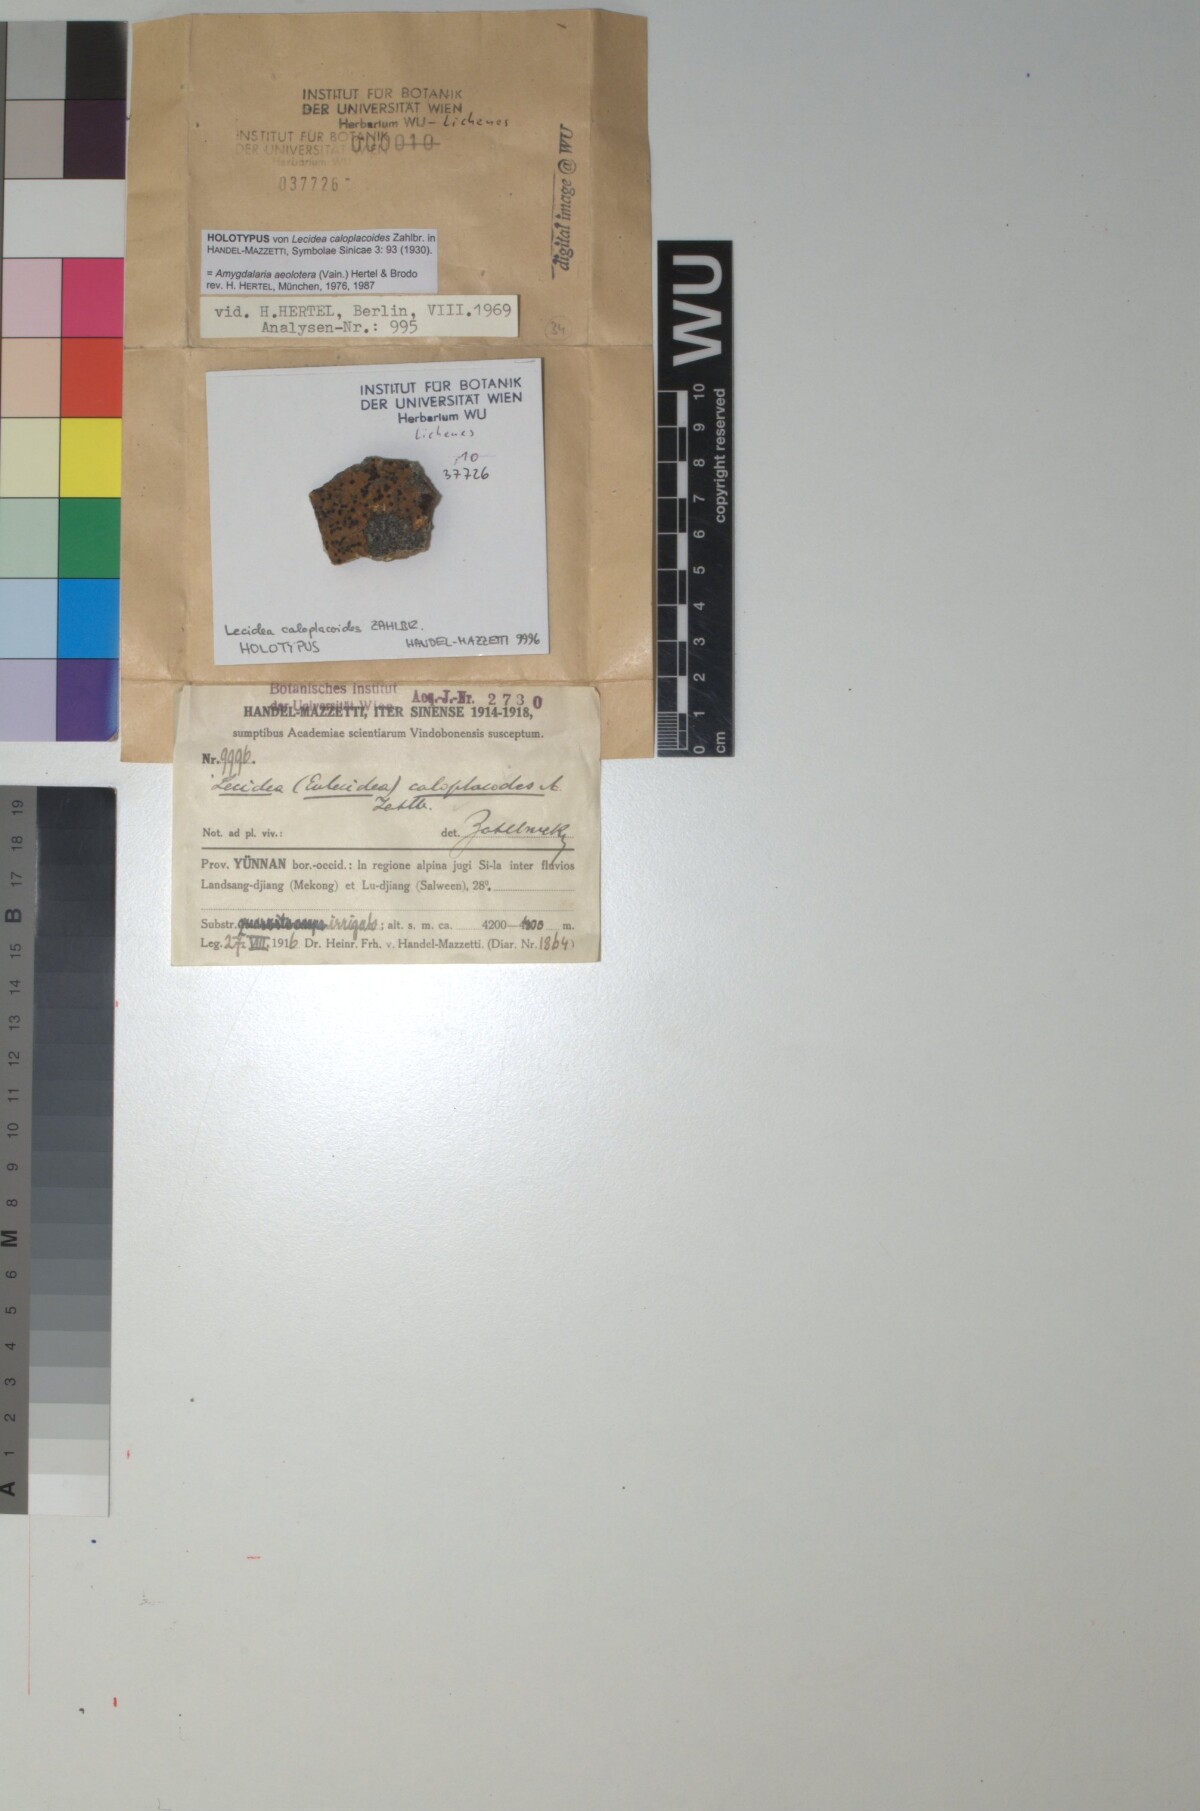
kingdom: Fungi
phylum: Ascomycota
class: Lecanoromycetes
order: Lecideales
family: Lecideaceae
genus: Lecidea
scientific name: Lecidea
